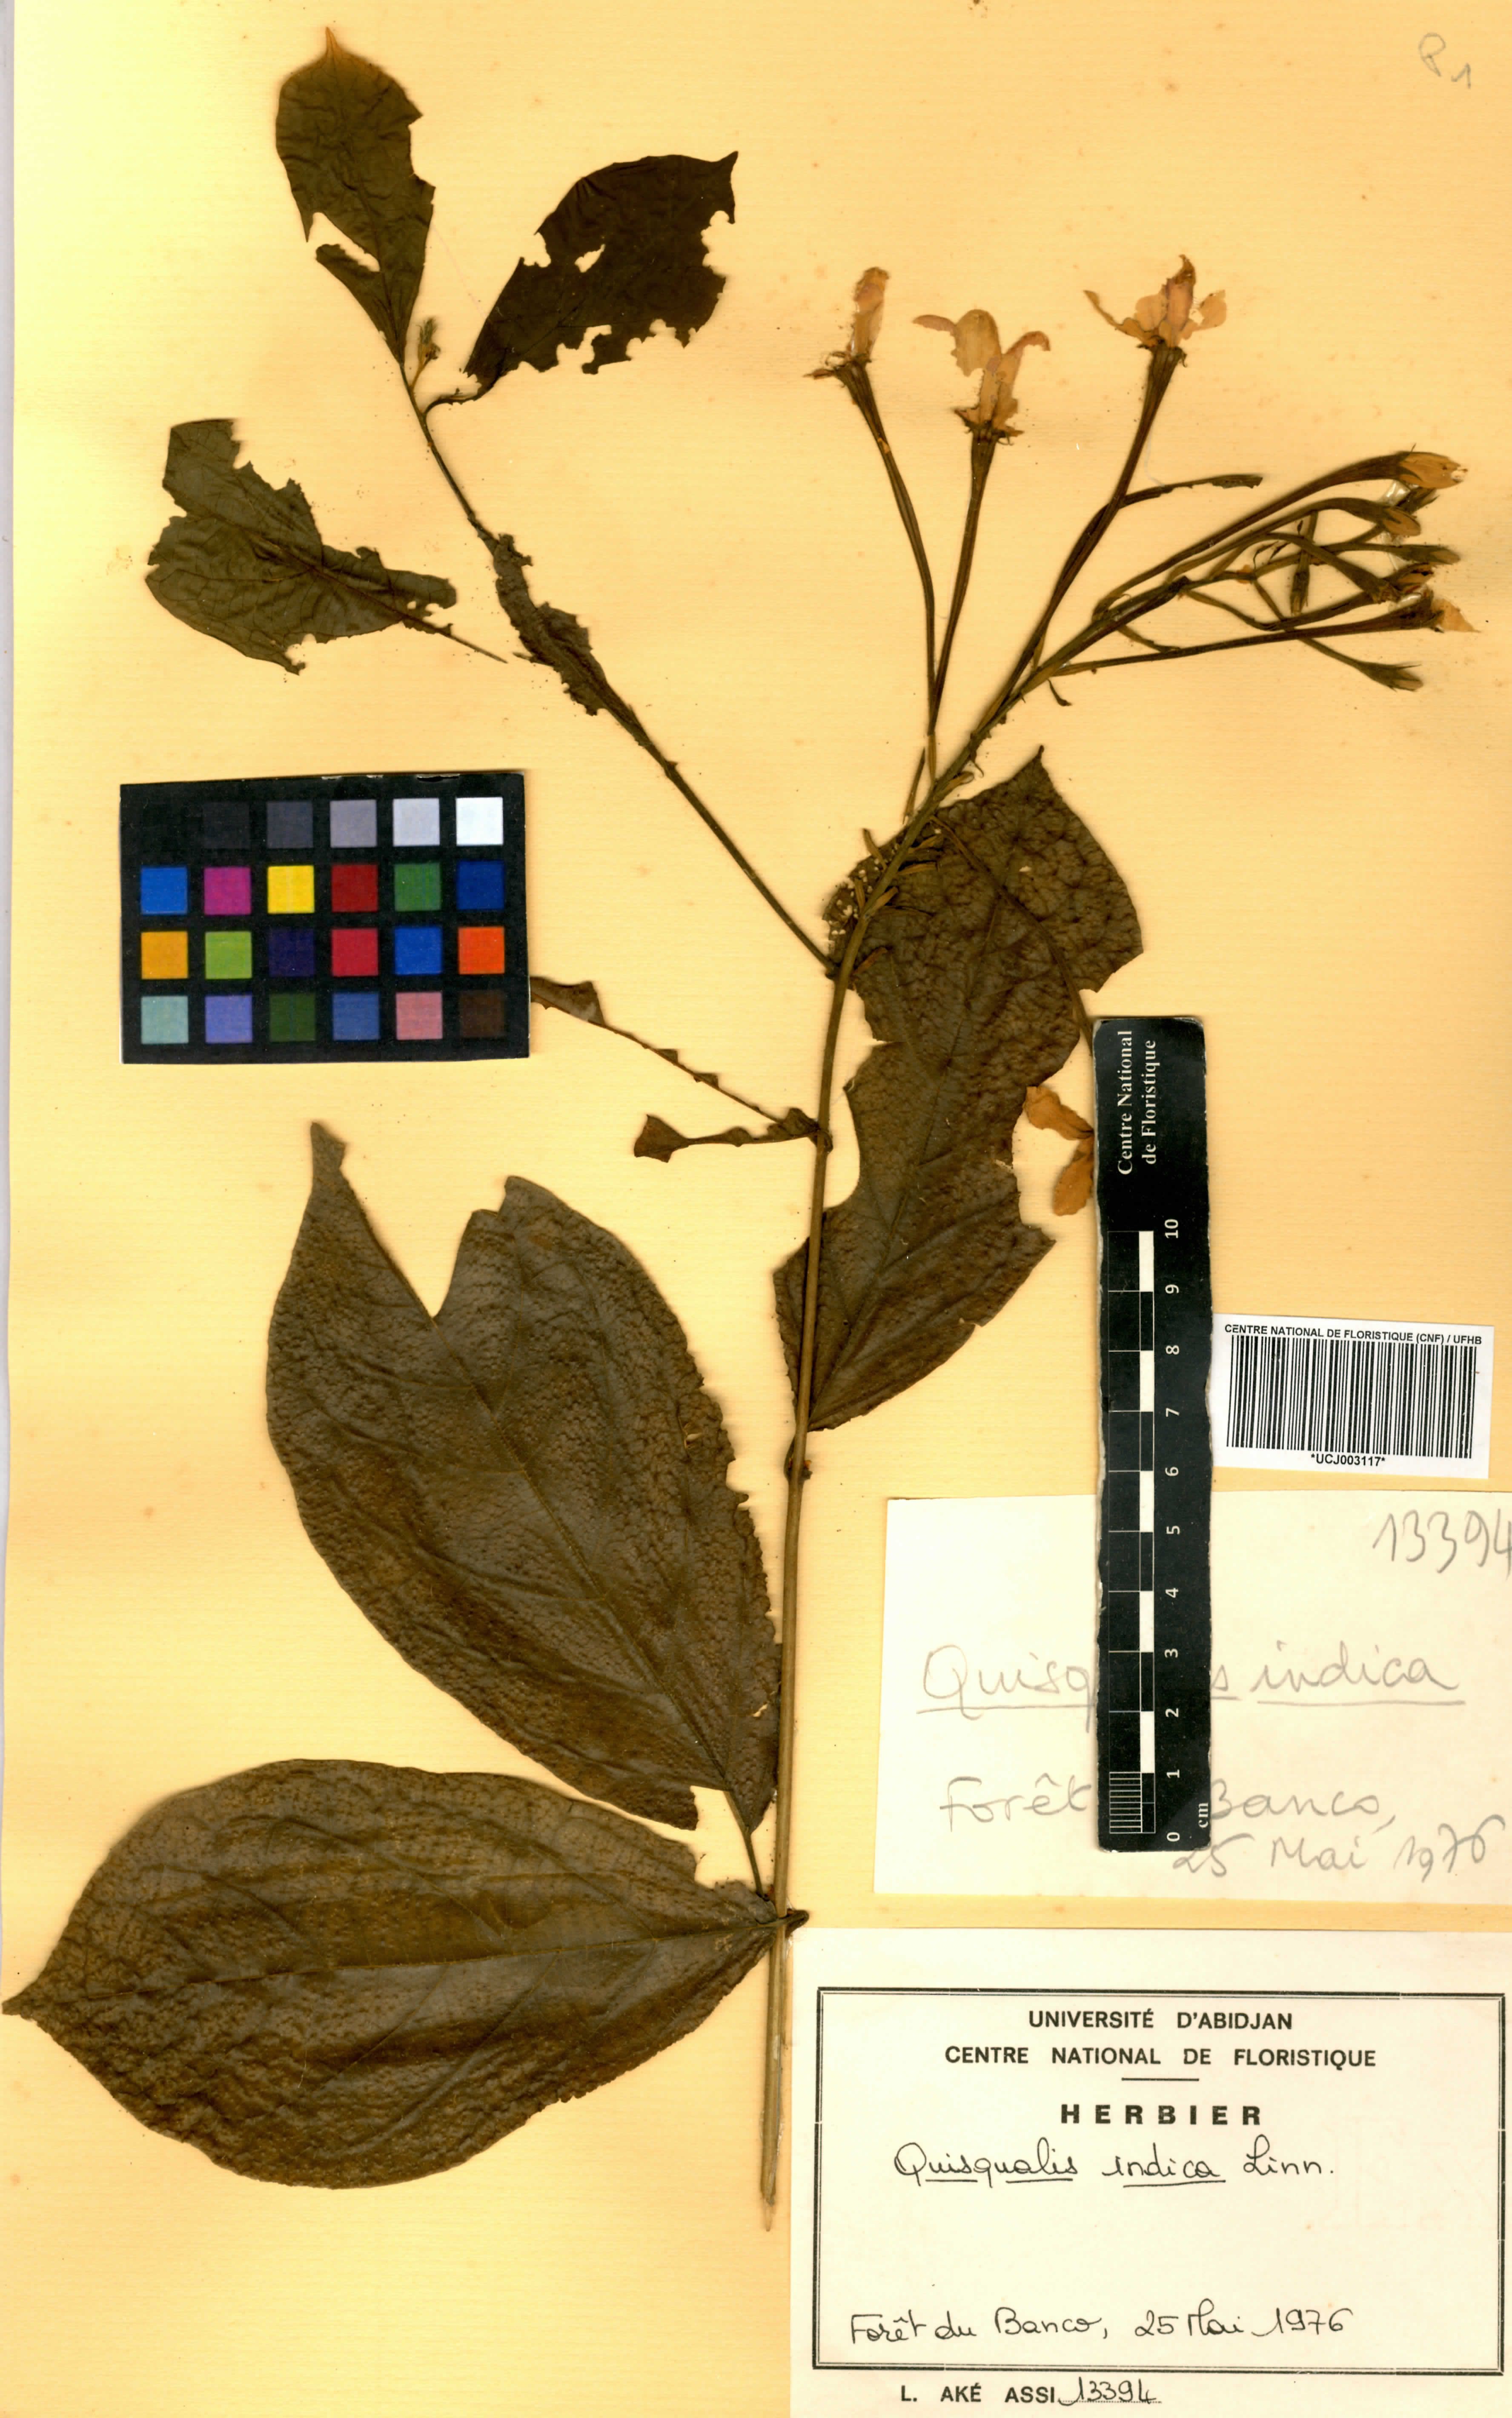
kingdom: Plantae
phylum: Tracheophyta
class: Magnoliopsida
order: Myrtales
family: Combretaceae
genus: Combretum
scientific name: Combretum indicum
